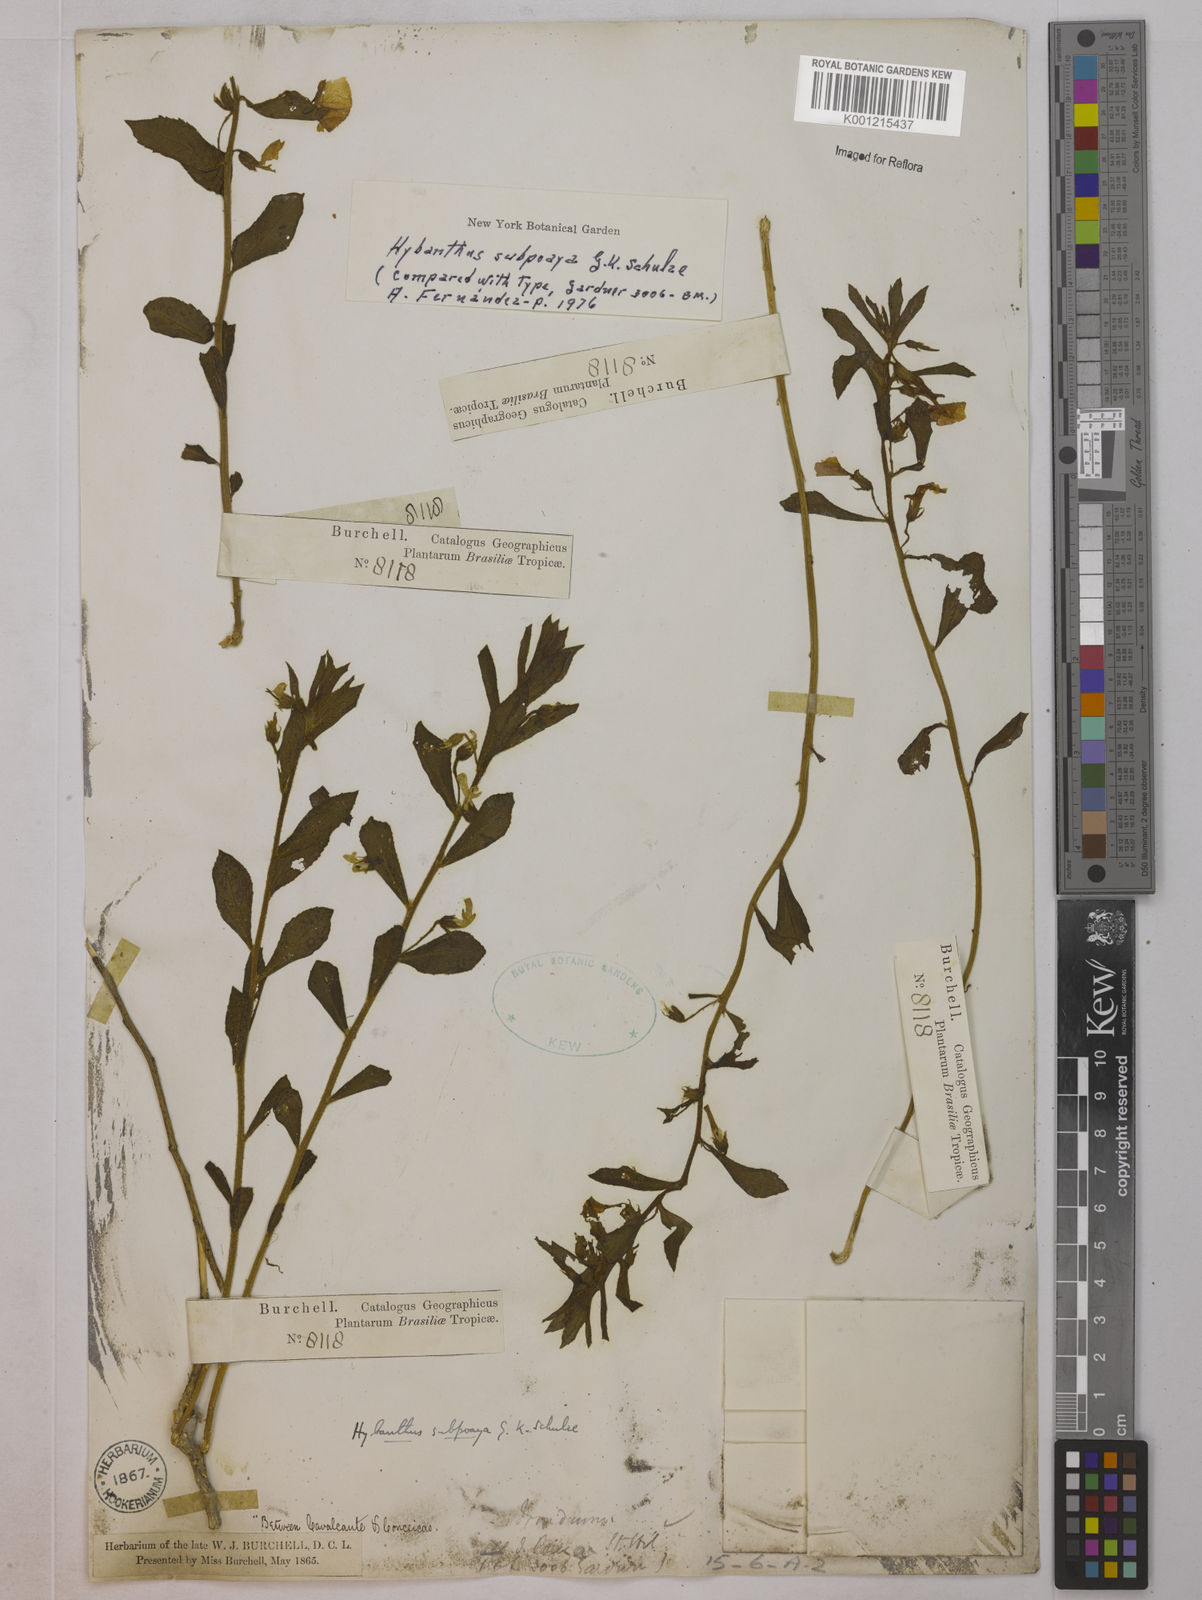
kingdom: Plantae
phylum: Tracheophyta
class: Magnoliopsida
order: Malpighiales
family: Violaceae
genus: Pombalia
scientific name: Pombalia lanata
